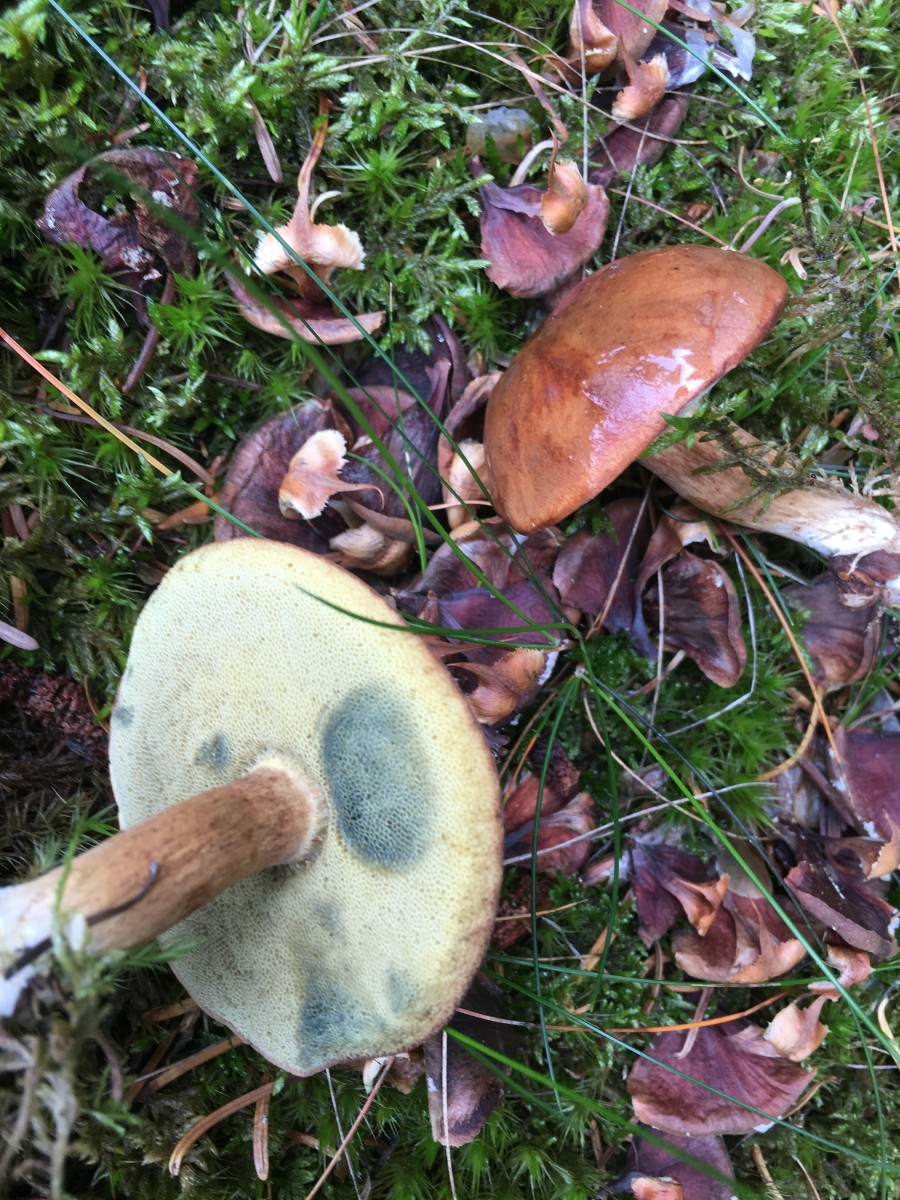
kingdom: Fungi
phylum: Basidiomycota
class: Agaricomycetes
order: Boletales
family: Boletaceae
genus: Imleria
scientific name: Imleria badia
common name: brunstokket rørhat
